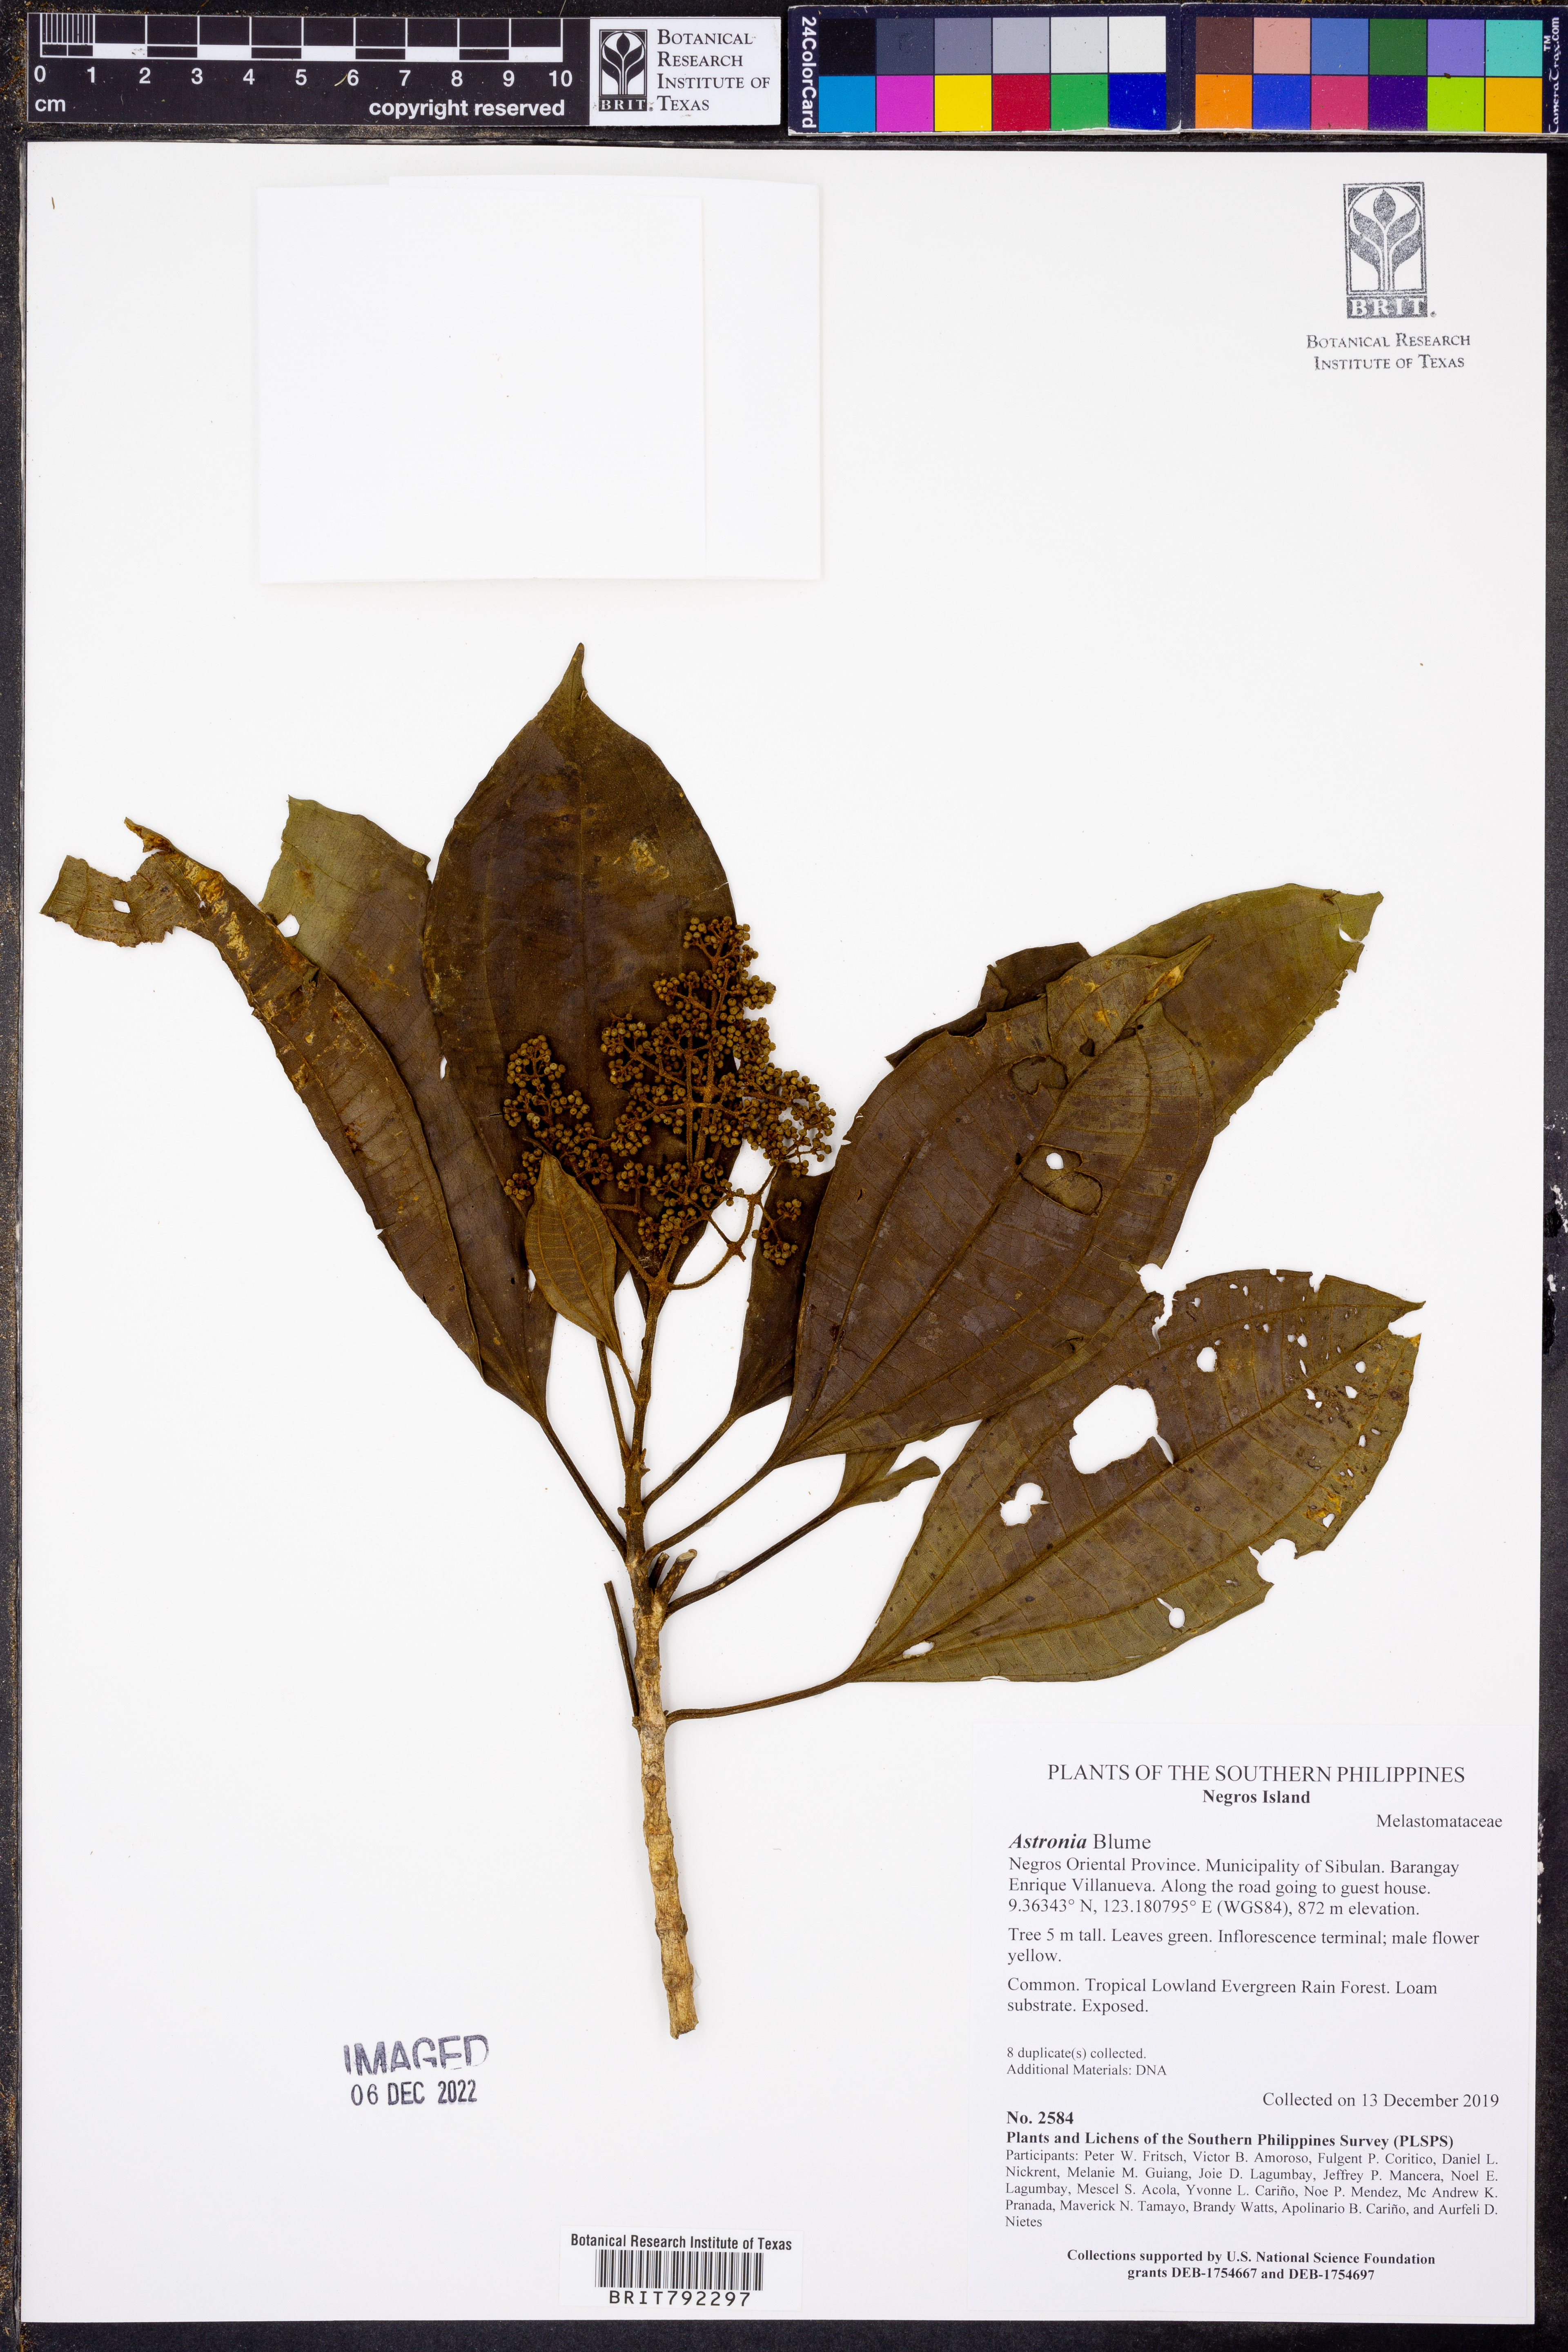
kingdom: Plantae
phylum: Tracheophyta
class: Magnoliopsida
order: Myrtales
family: Melastomataceae
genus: Astronia
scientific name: Astronia
